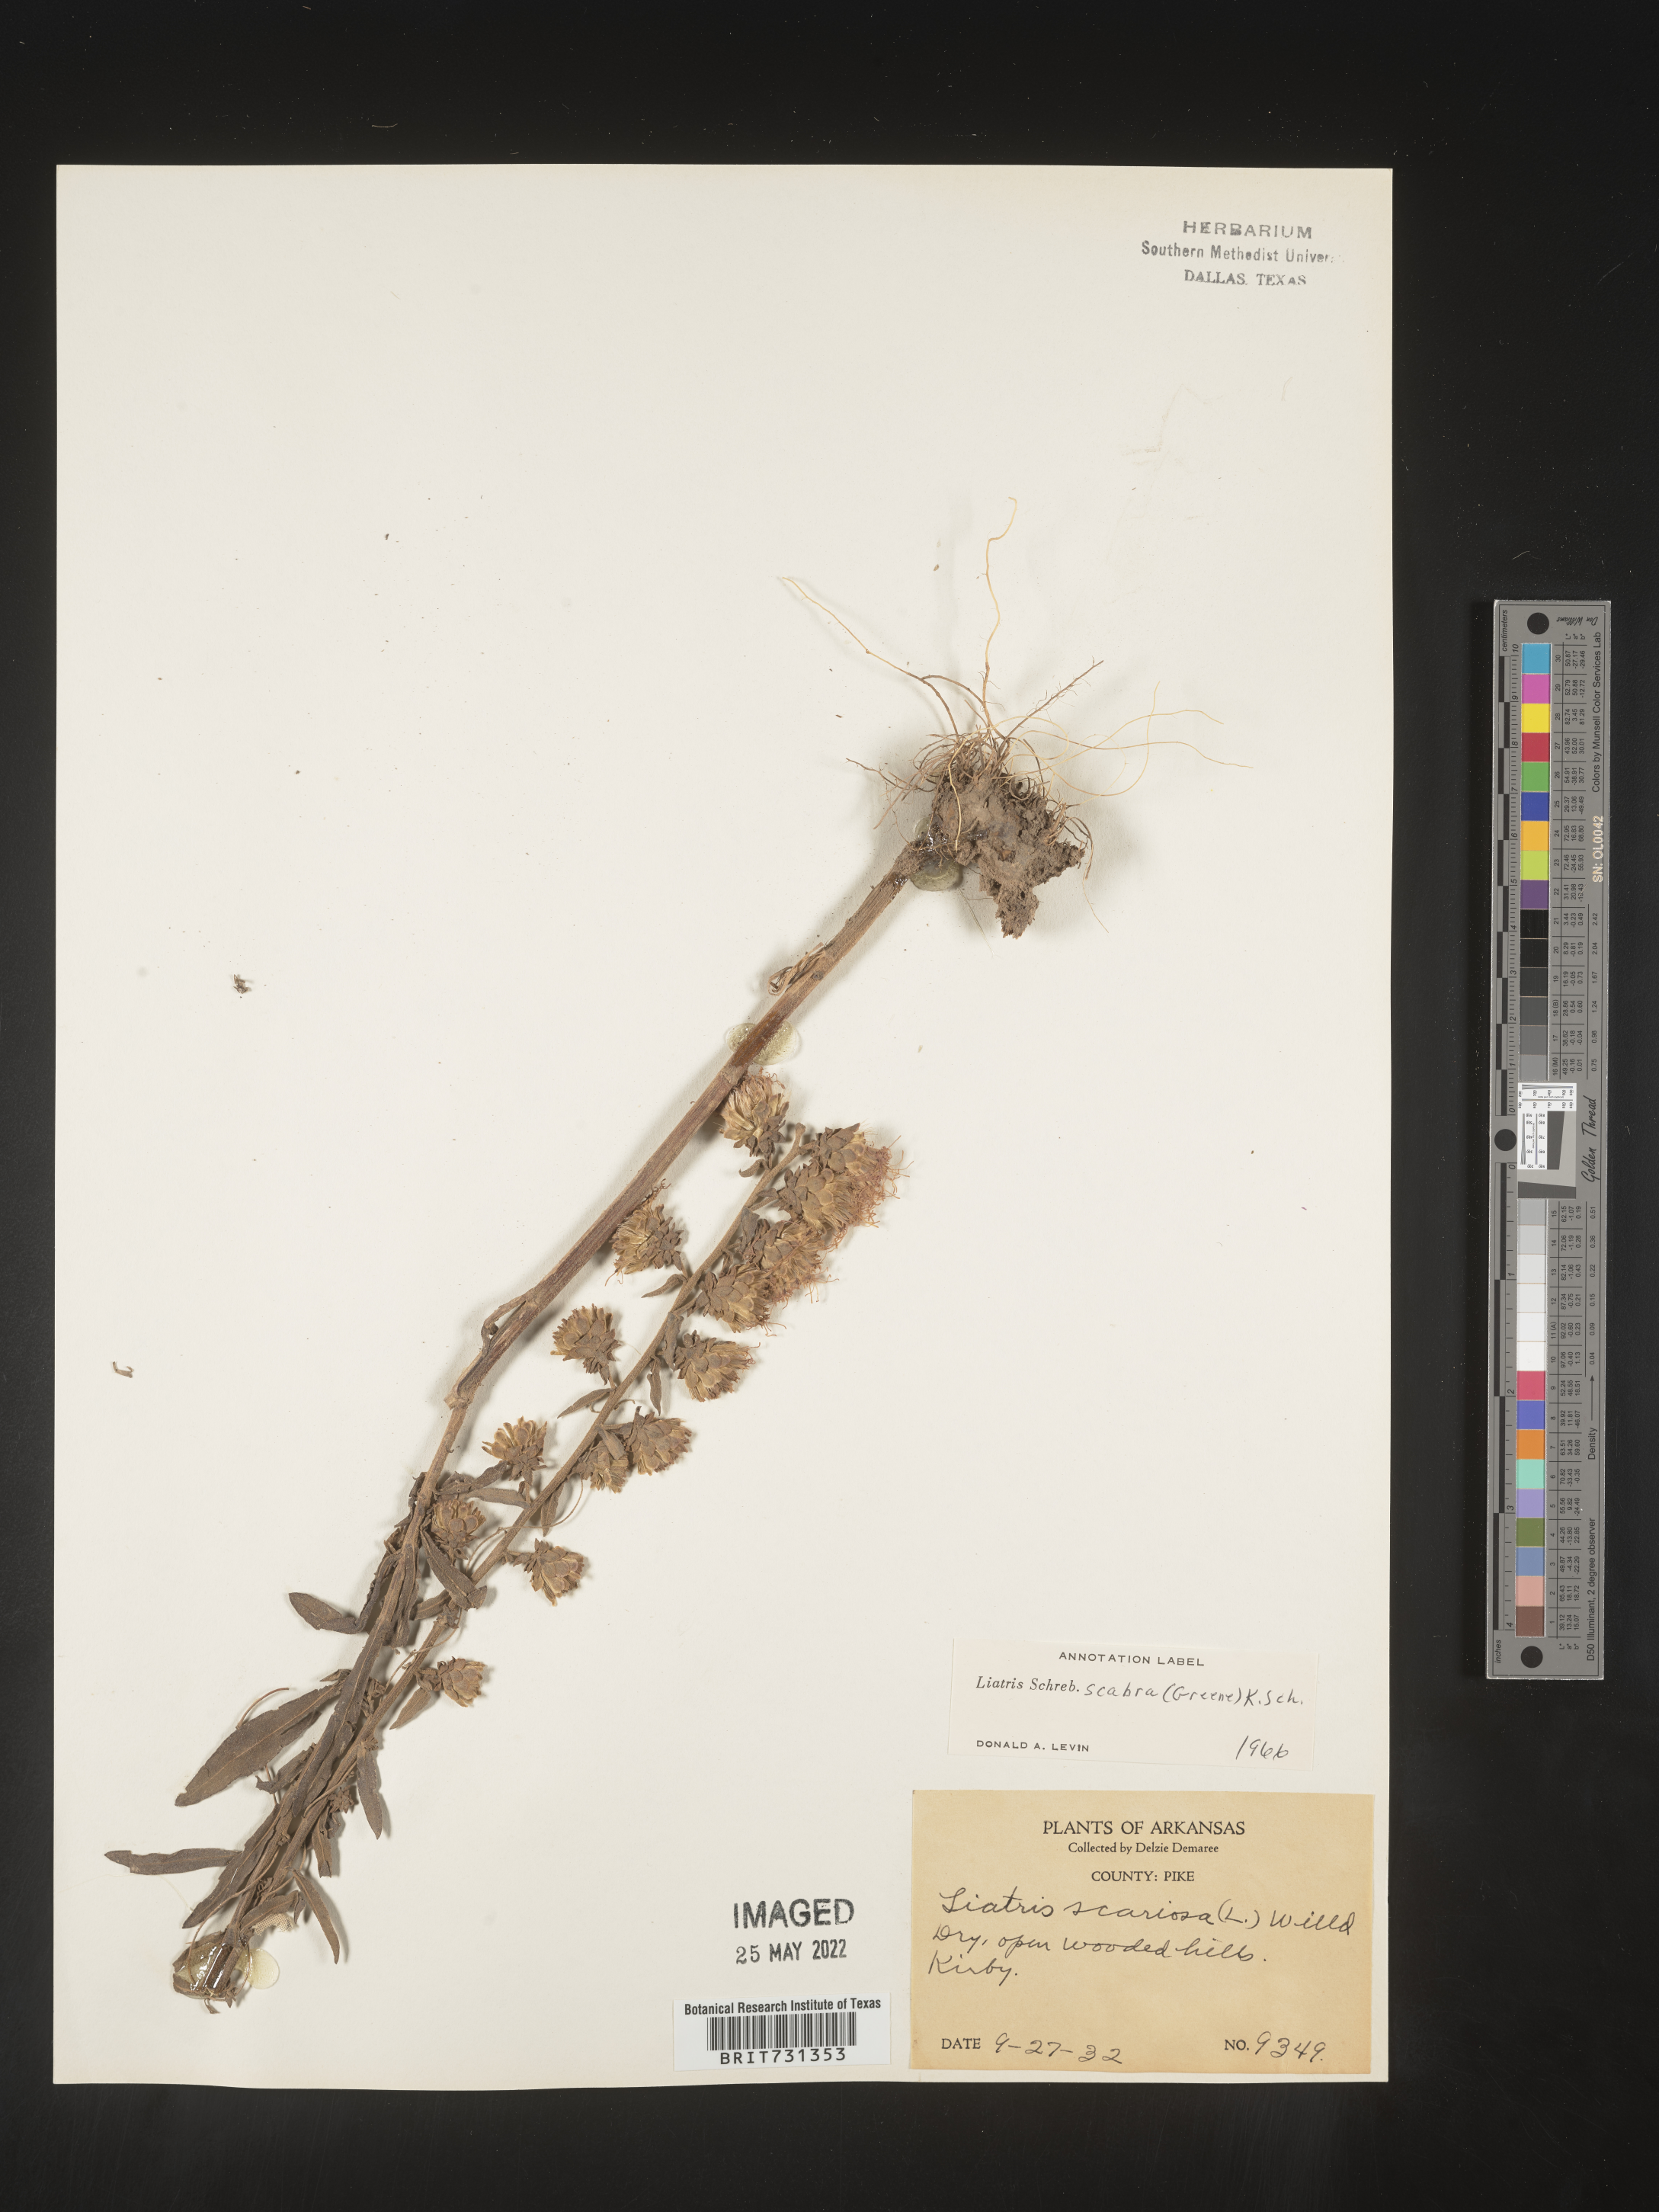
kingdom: Plantae
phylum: Tracheophyta
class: Magnoliopsida
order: Asterales
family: Asteraceae
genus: Liatris
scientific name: Liatris squarrulosa
